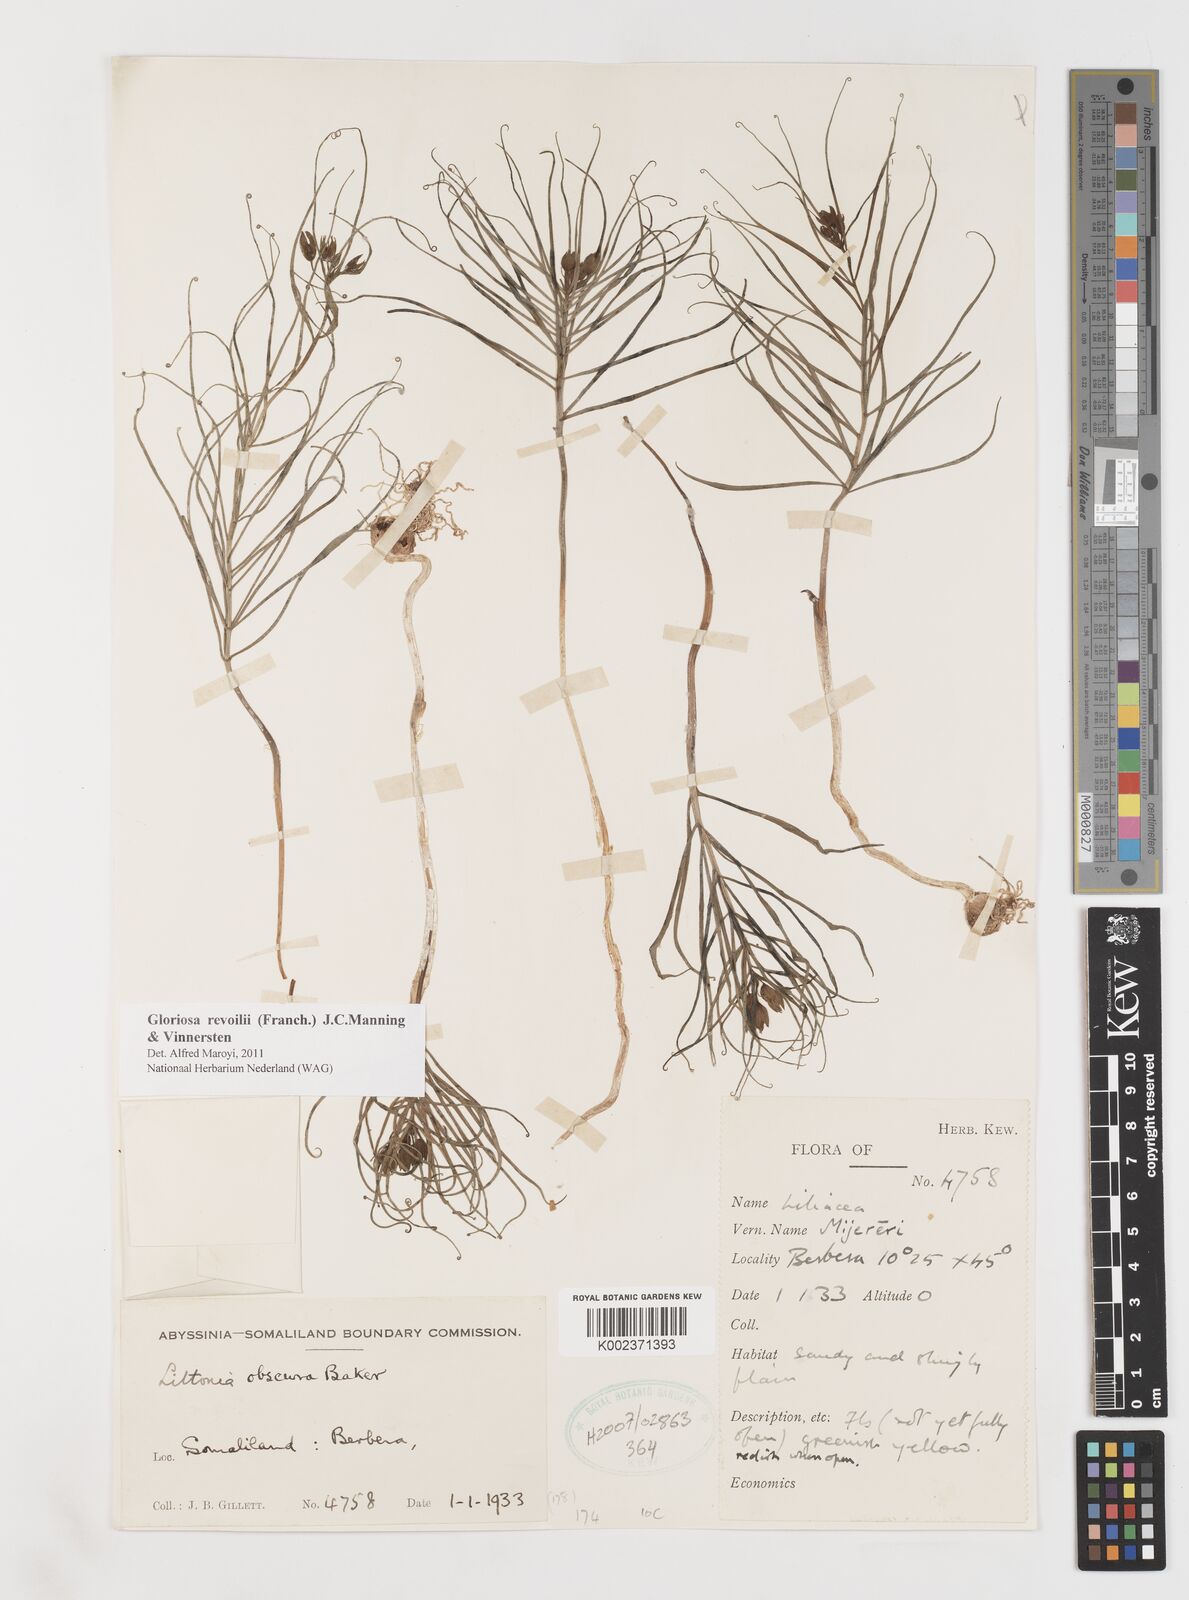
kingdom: Plantae
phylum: Tracheophyta
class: Liliopsida
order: Liliales
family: Colchicaceae
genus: Gloriosa
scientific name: Gloriosa revoilii
